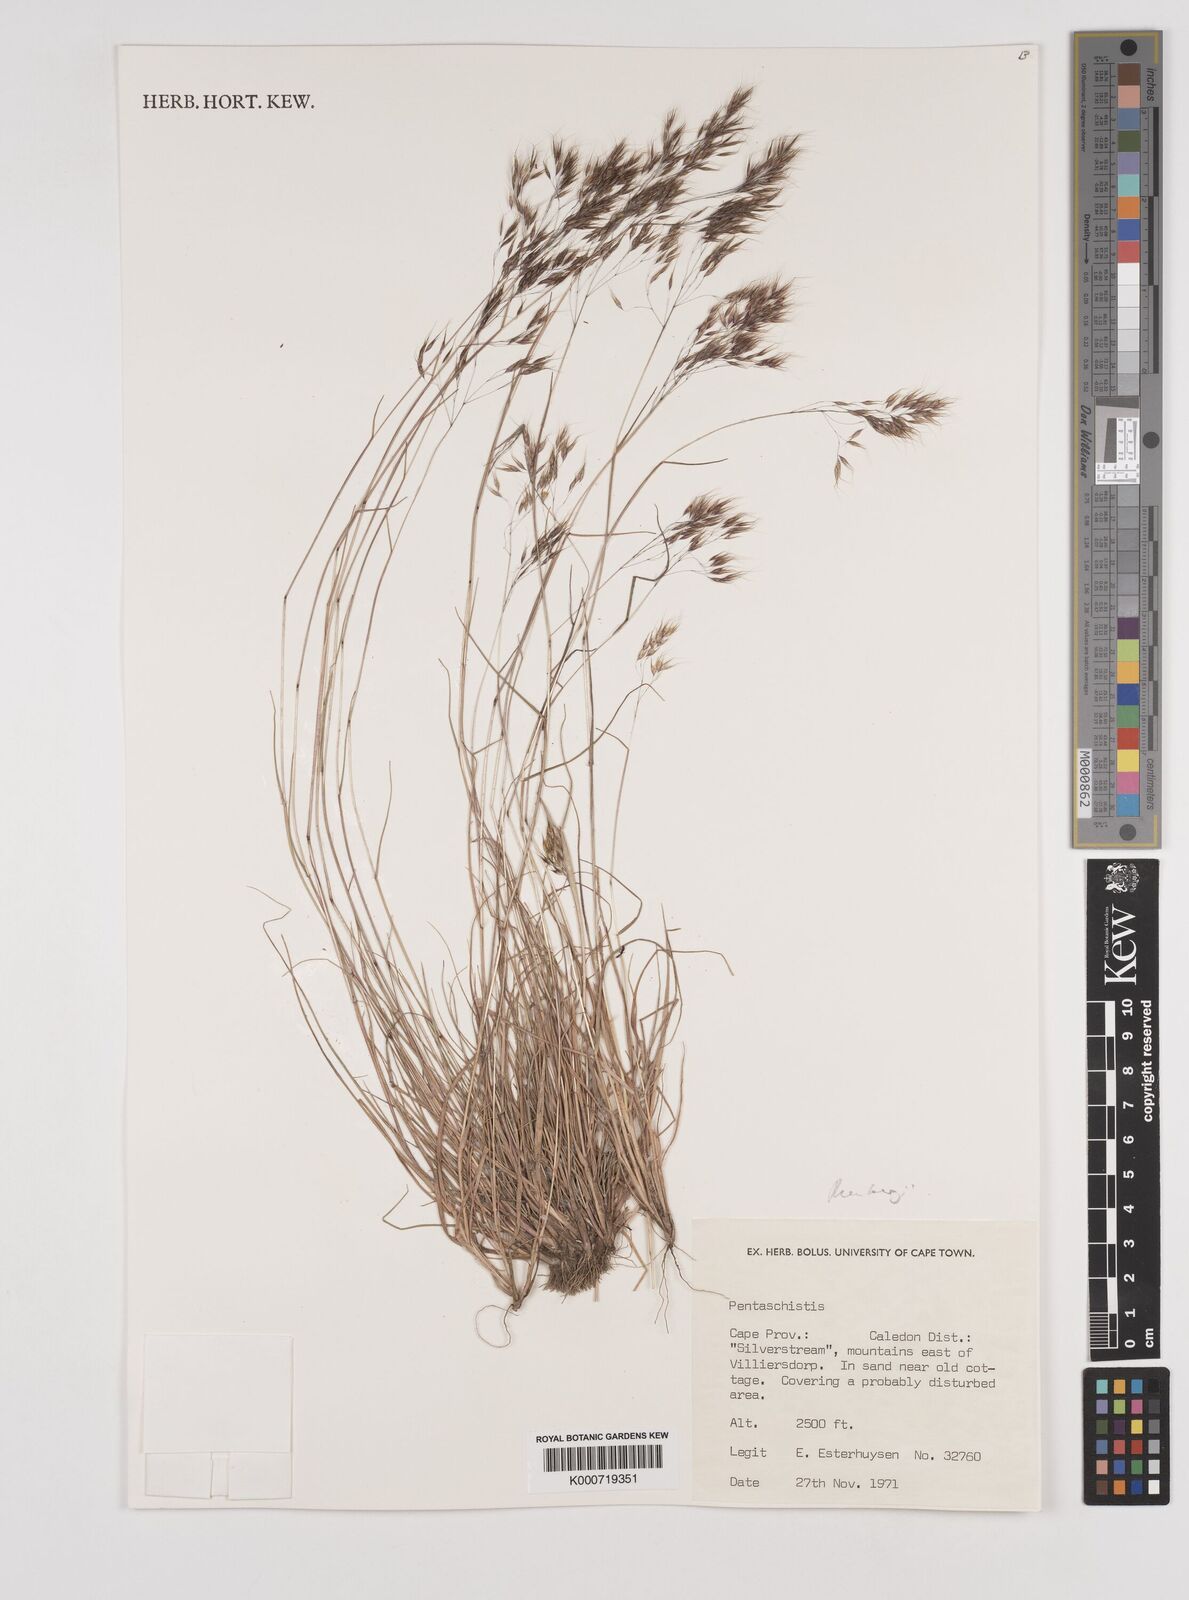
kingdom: Plantae
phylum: Tracheophyta
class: Liliopsida
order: Poales
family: Poaceae
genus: Pentameris
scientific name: Pentameris triseta
